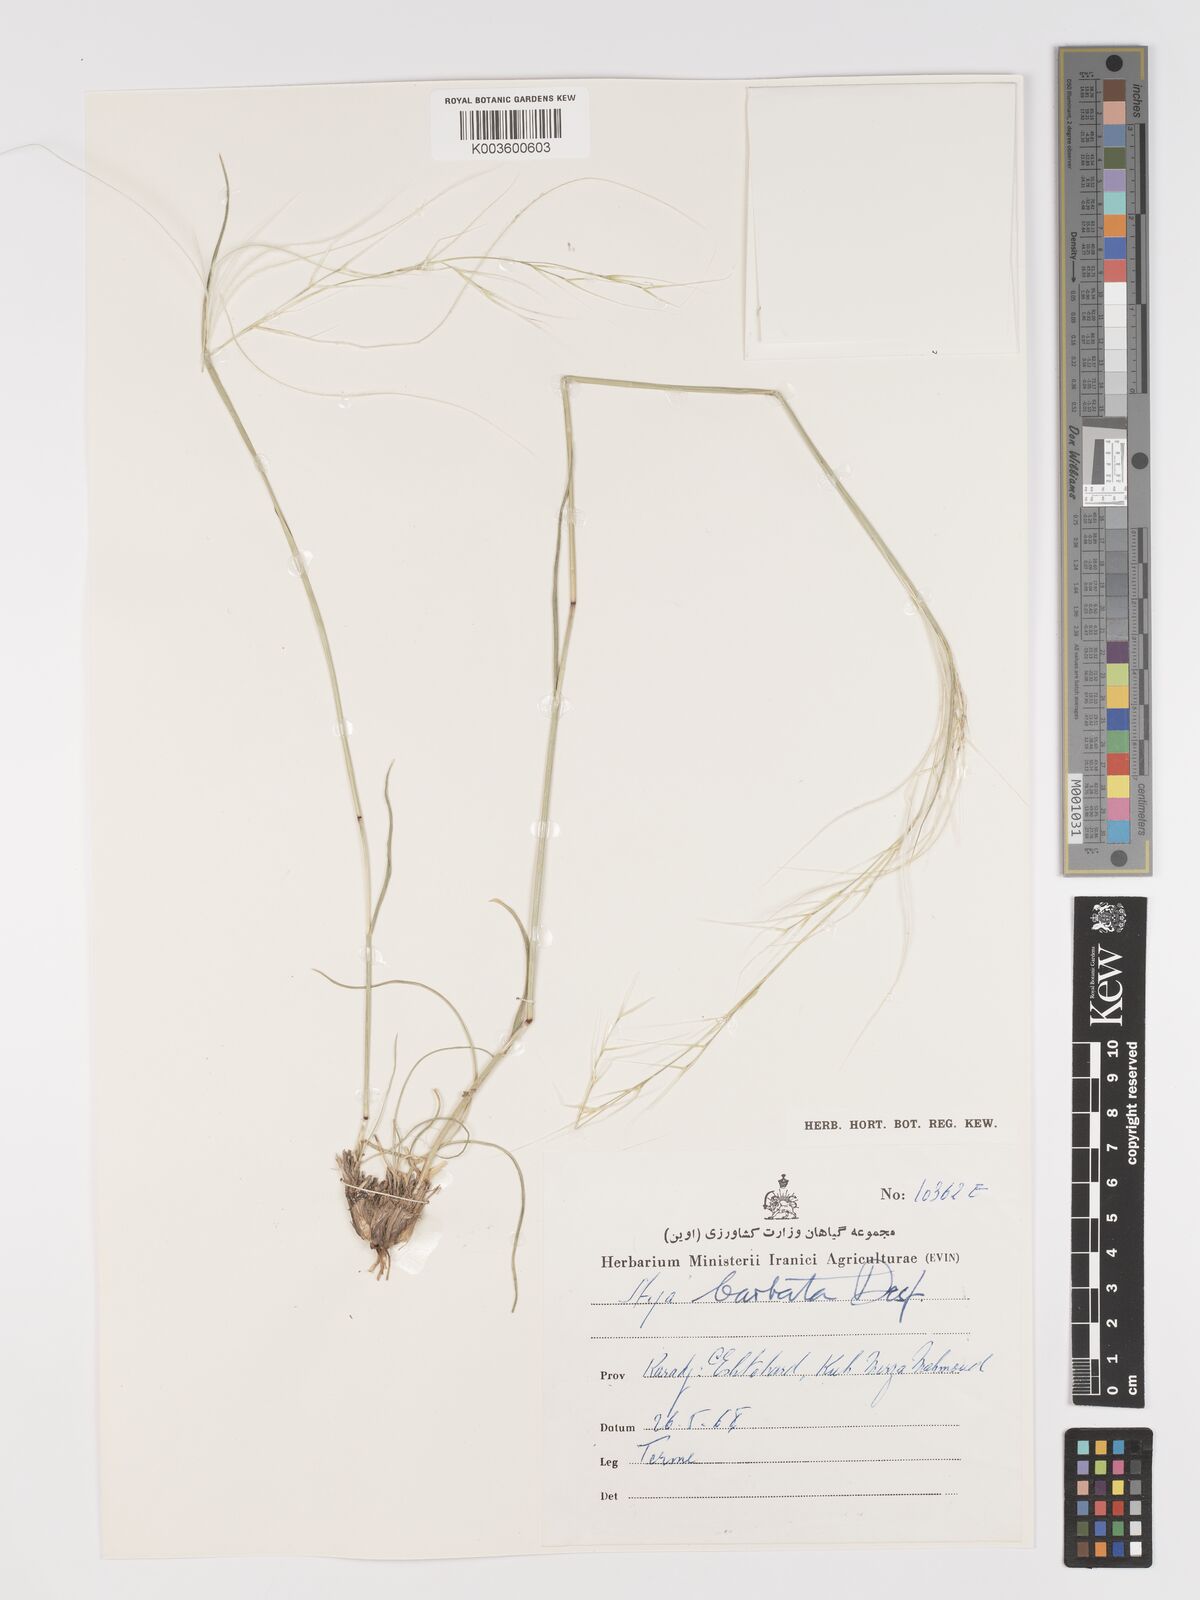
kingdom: Plantae
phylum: Tracheophyta
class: Liliopsida
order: Poales
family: Poaceae
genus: Stipa
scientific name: Stipa barbata
